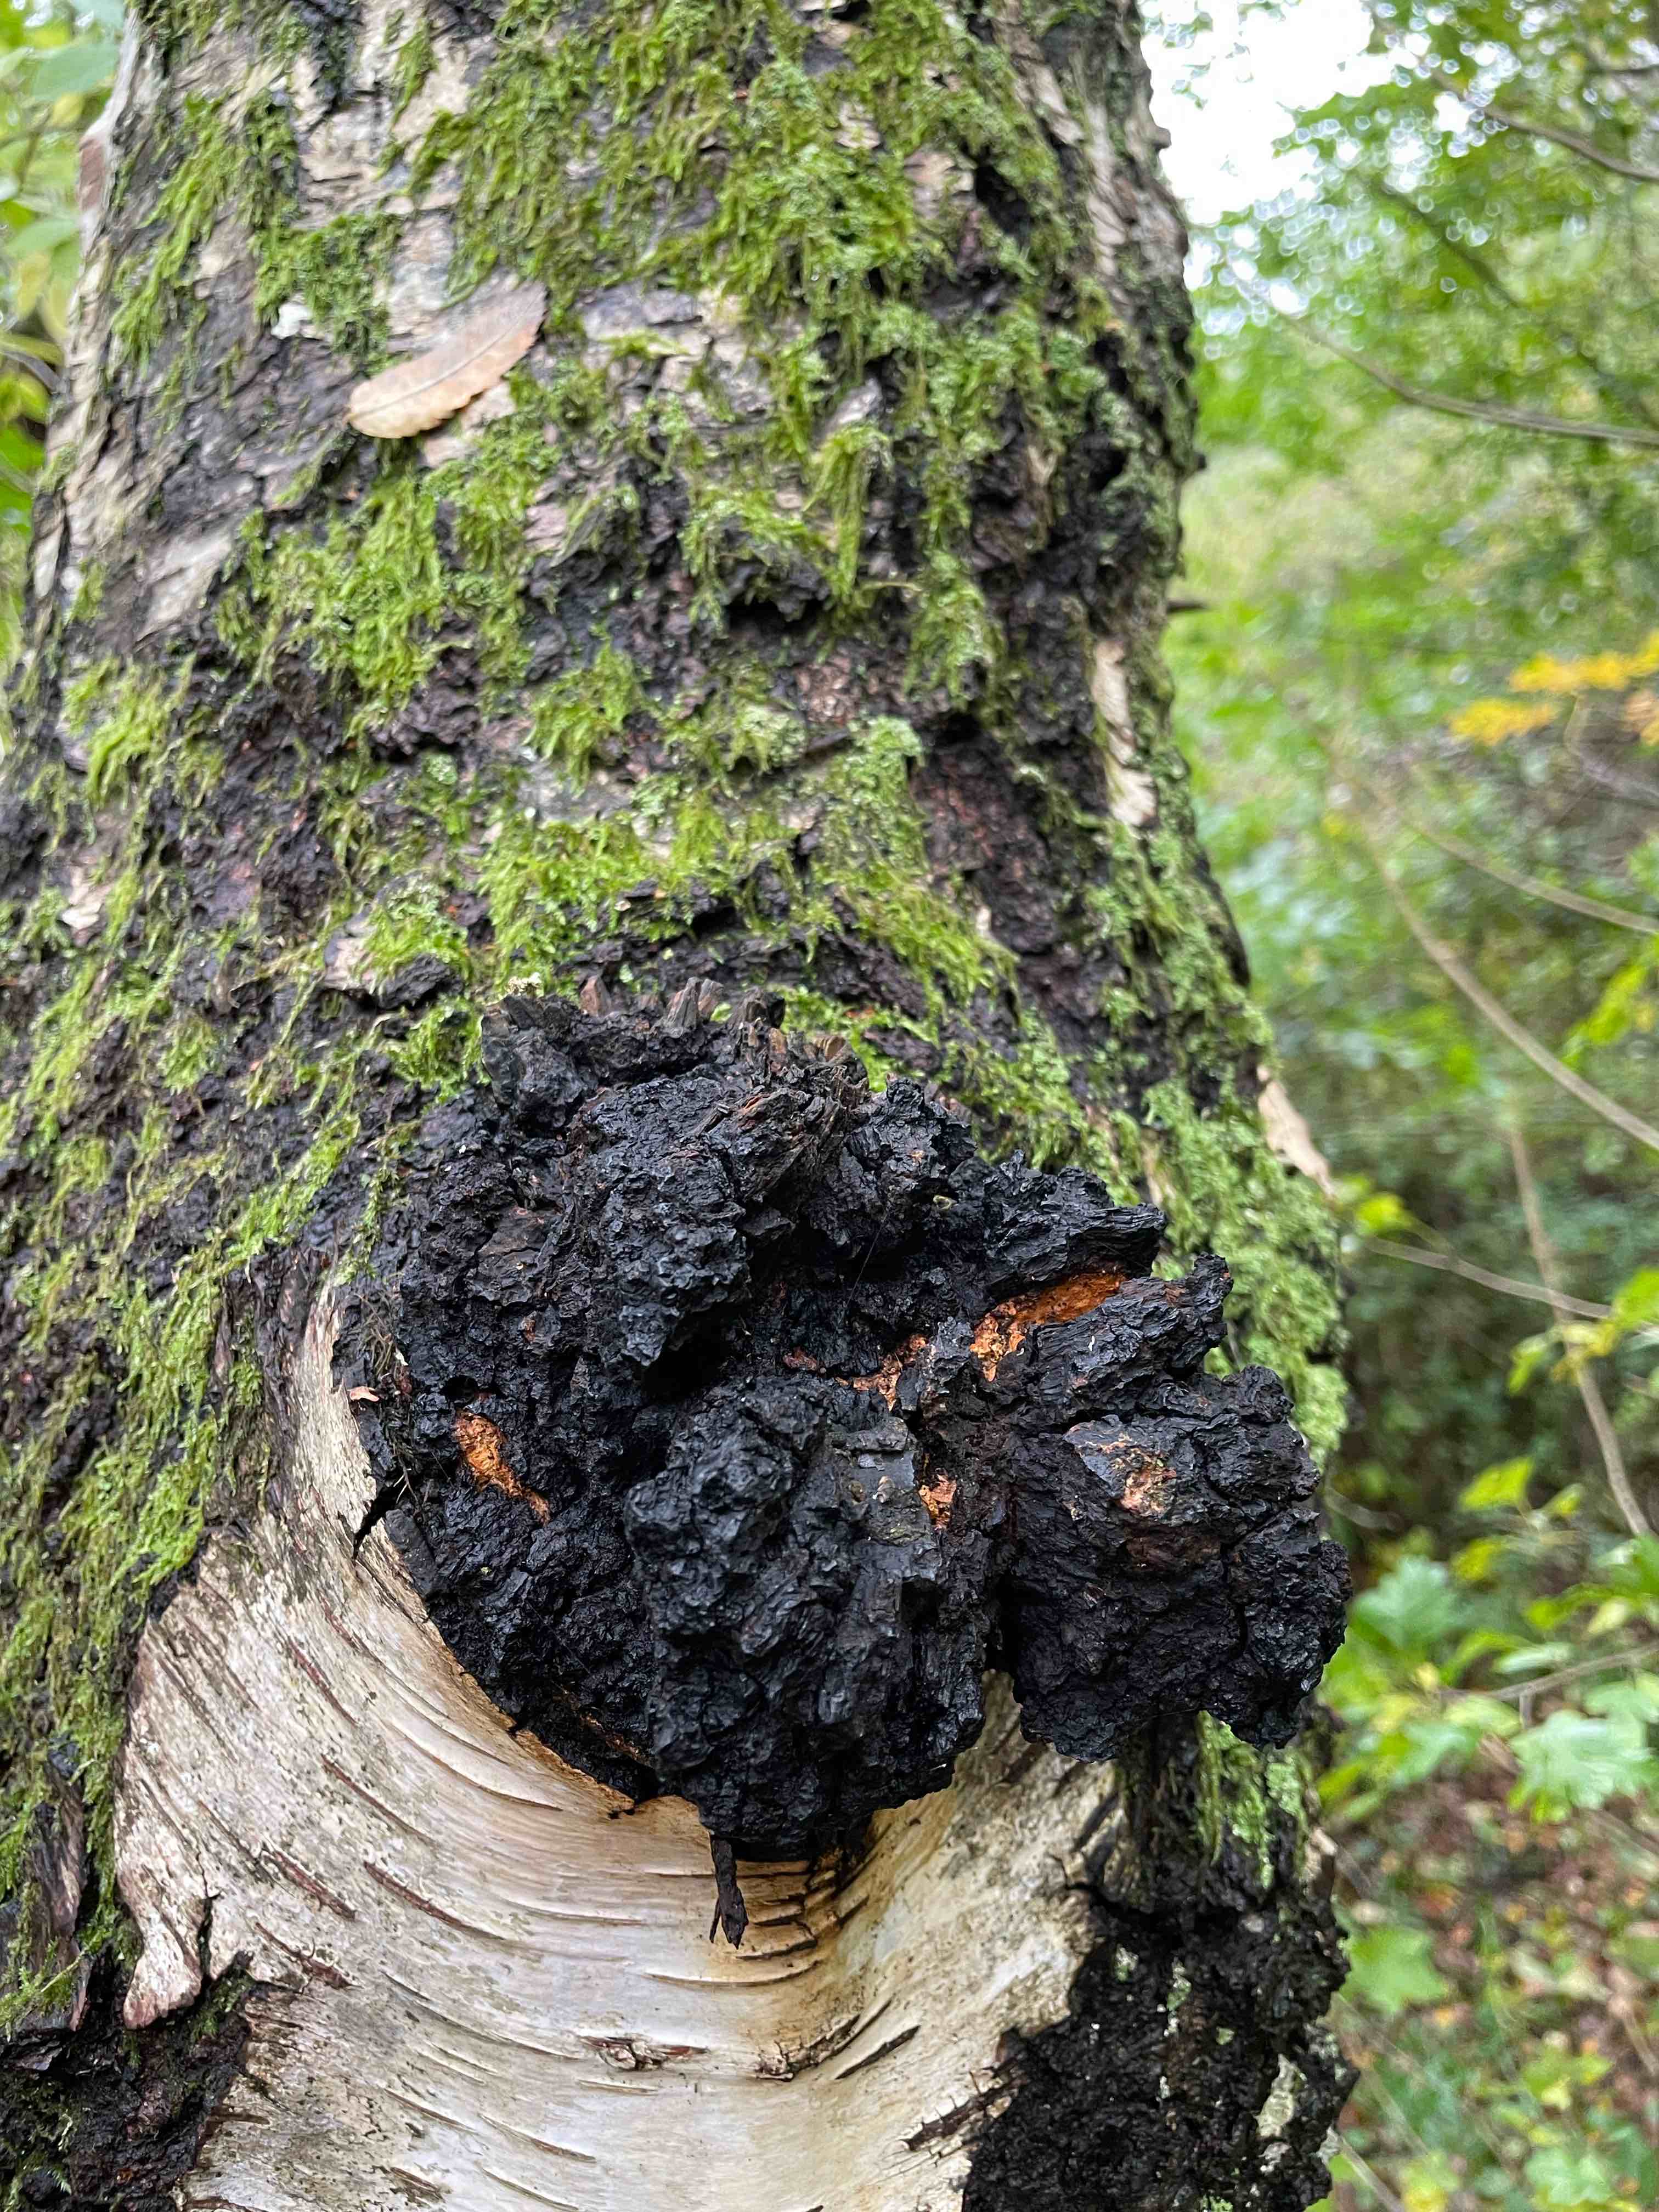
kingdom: Fungi
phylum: Basidiomycota
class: Agaricomycetes
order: Hymenochaetales
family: Hymenochaetaceae
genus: Inonotus
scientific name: Inonotus obliquus
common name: birke-spejlporesvamp
